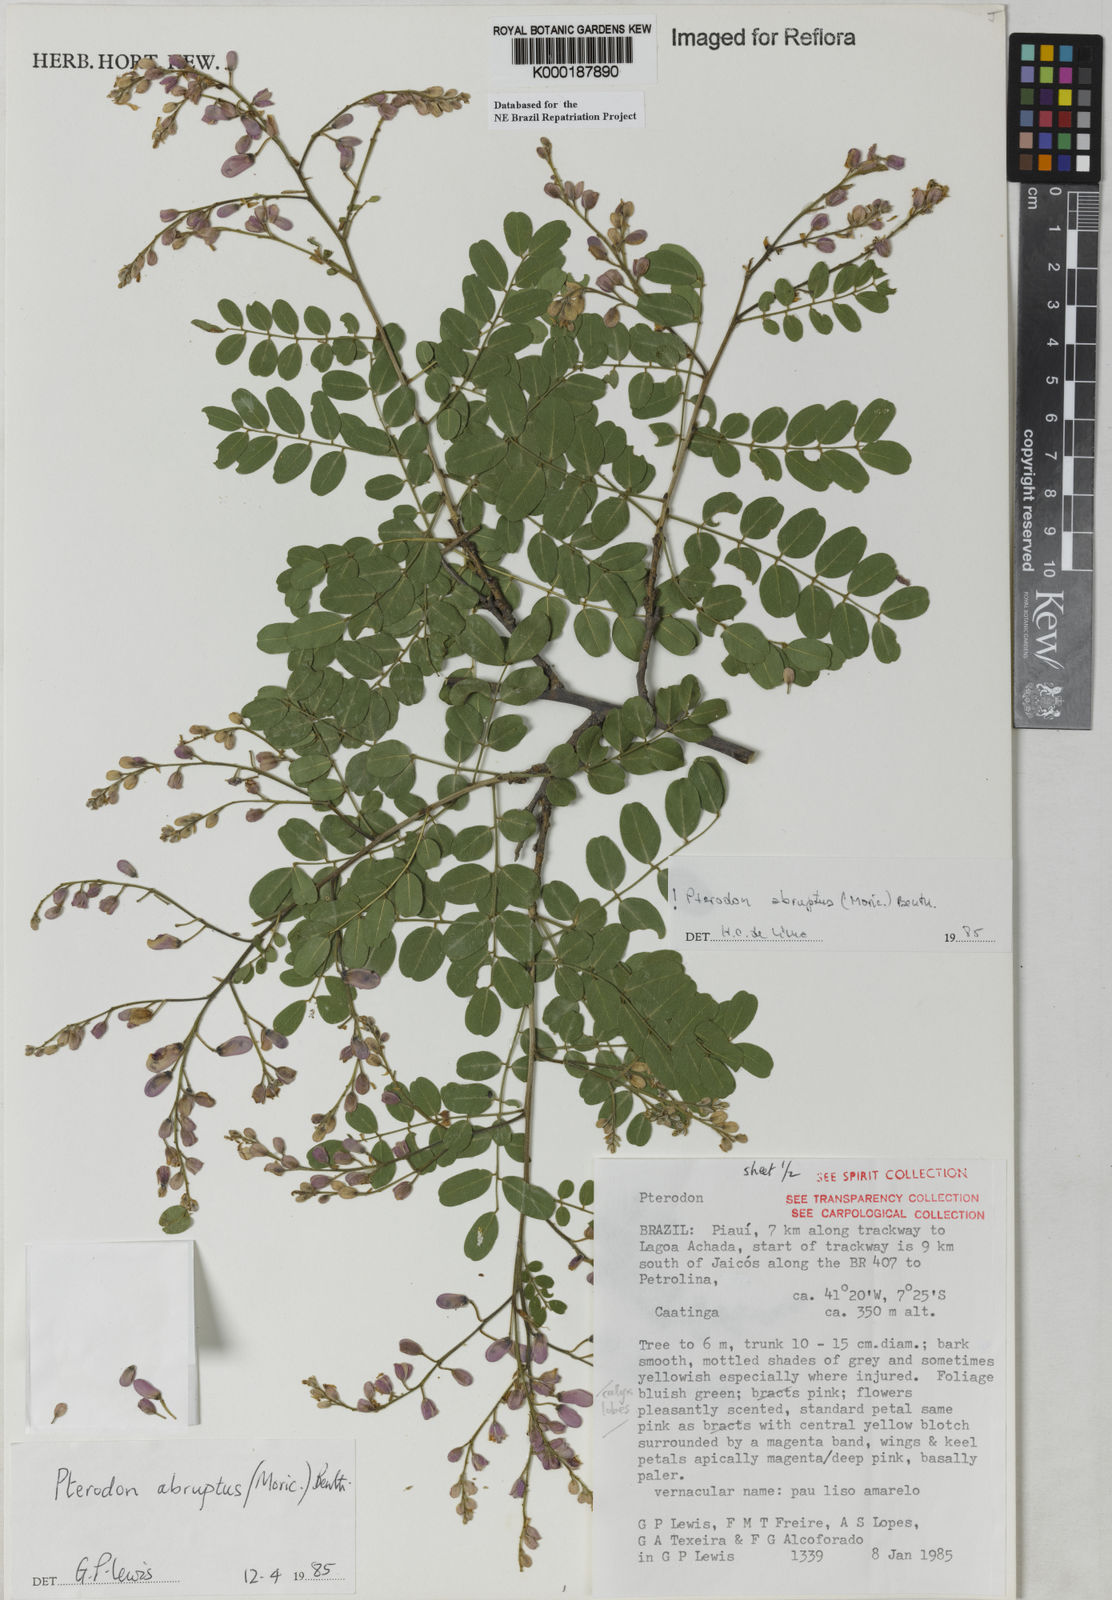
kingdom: Plantae
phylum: Tracheophyta
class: Magnoliopsida
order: Fabales
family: Fabaceae
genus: Pterodon
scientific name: Pterodon abruptus
